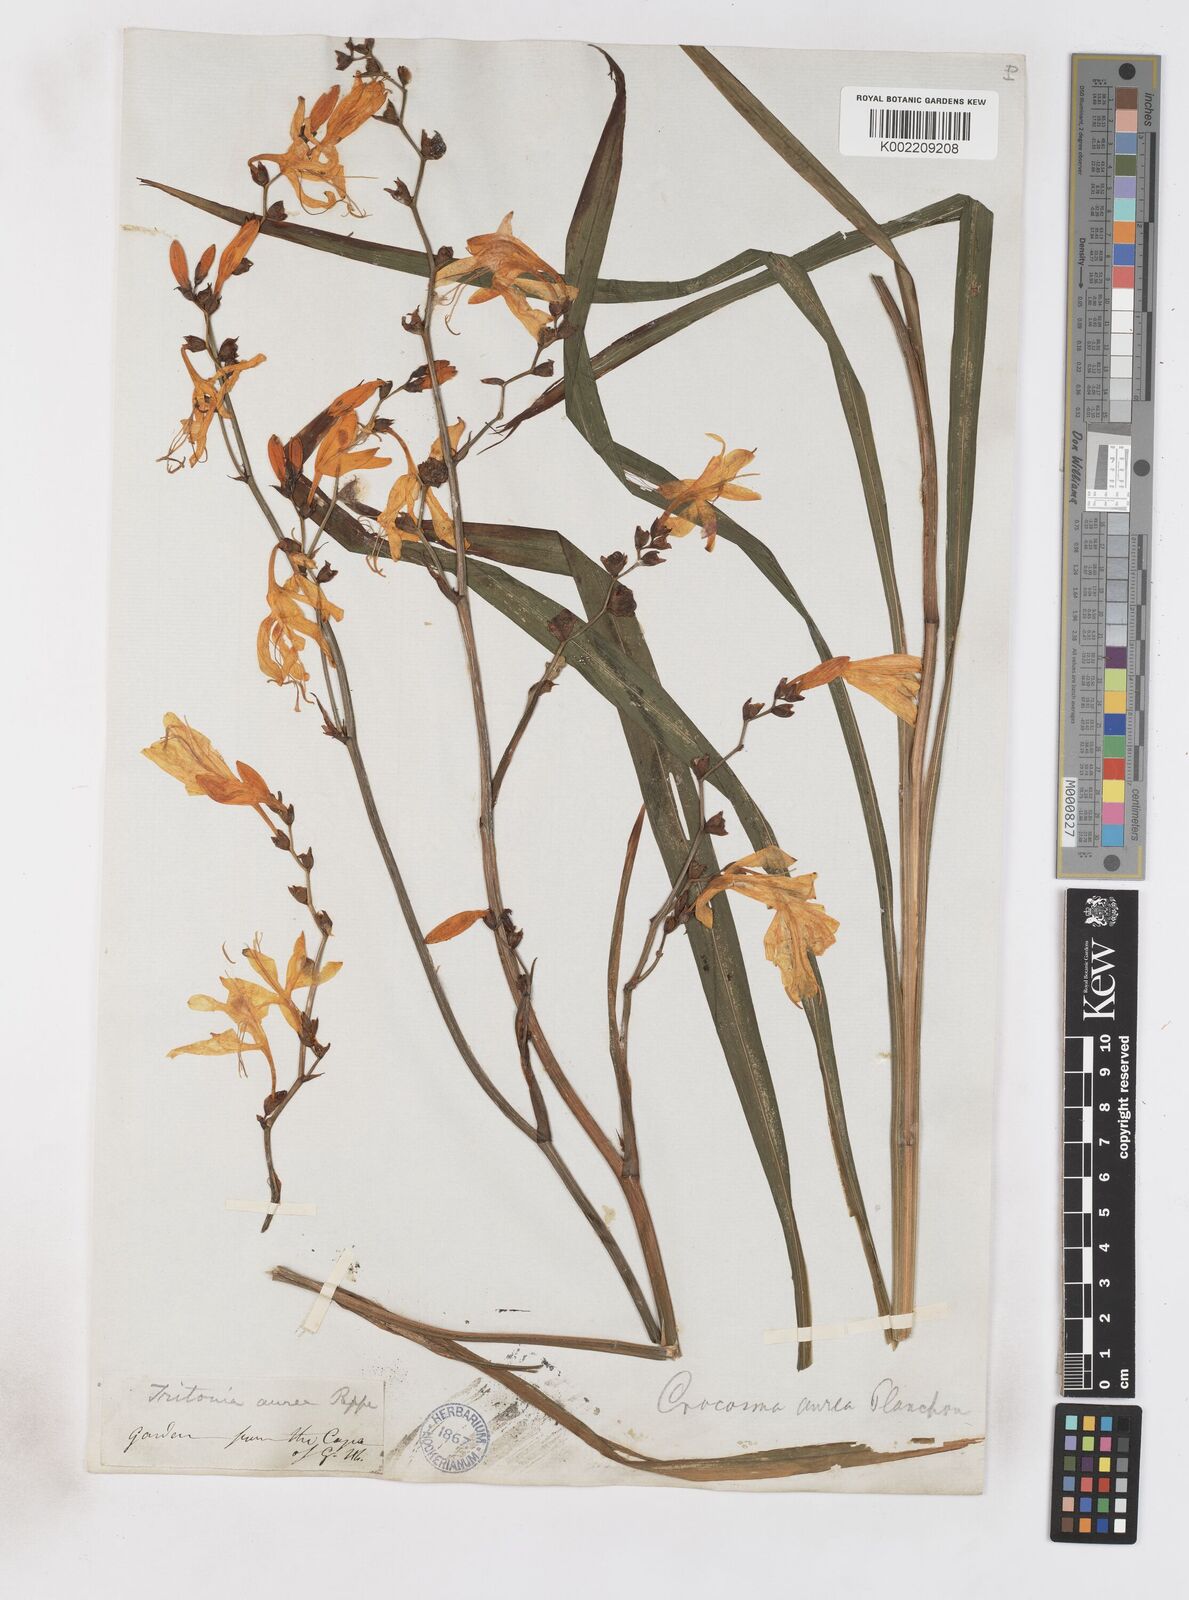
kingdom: Plantae
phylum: Tracheophyta
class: Liliopsida
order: Asparagales
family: Iridaceae
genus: Crocosmia
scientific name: Crocosmia aurea
